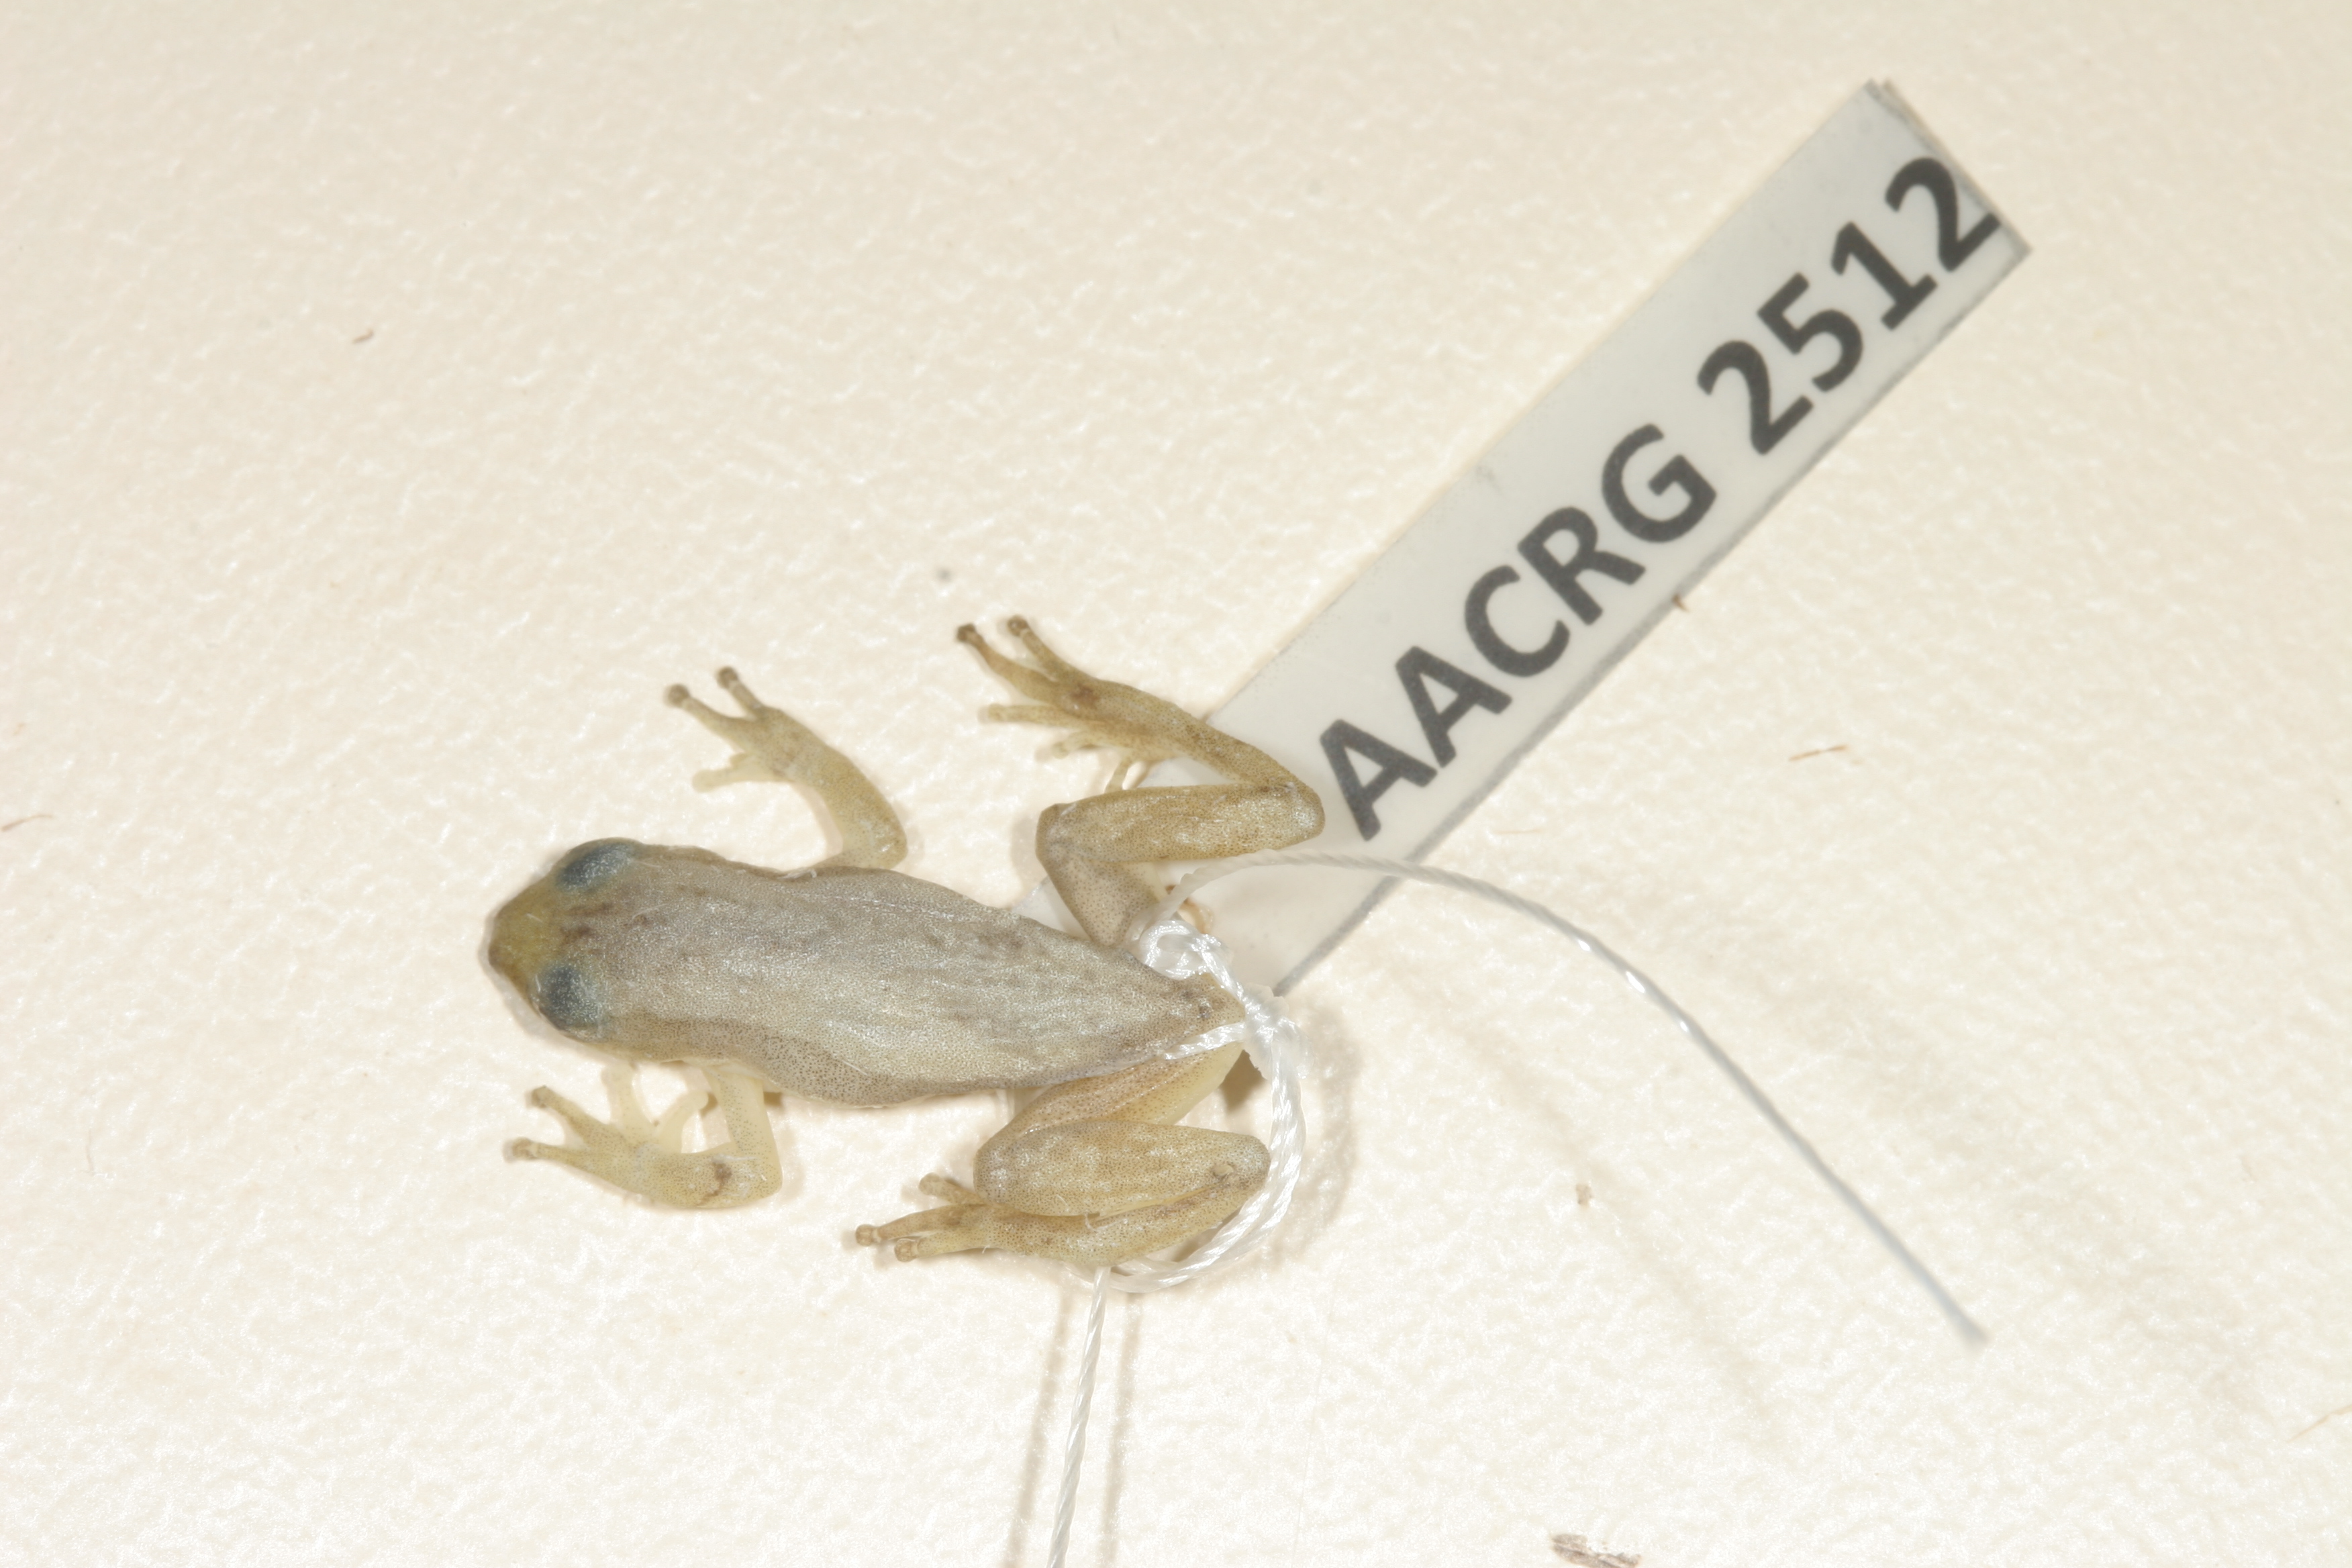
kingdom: Animalia
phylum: Chordata
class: Amphibia
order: Anura
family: Hyperoliidae
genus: Afrixalus
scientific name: Afrixalus aureus
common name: Golden banana frog
